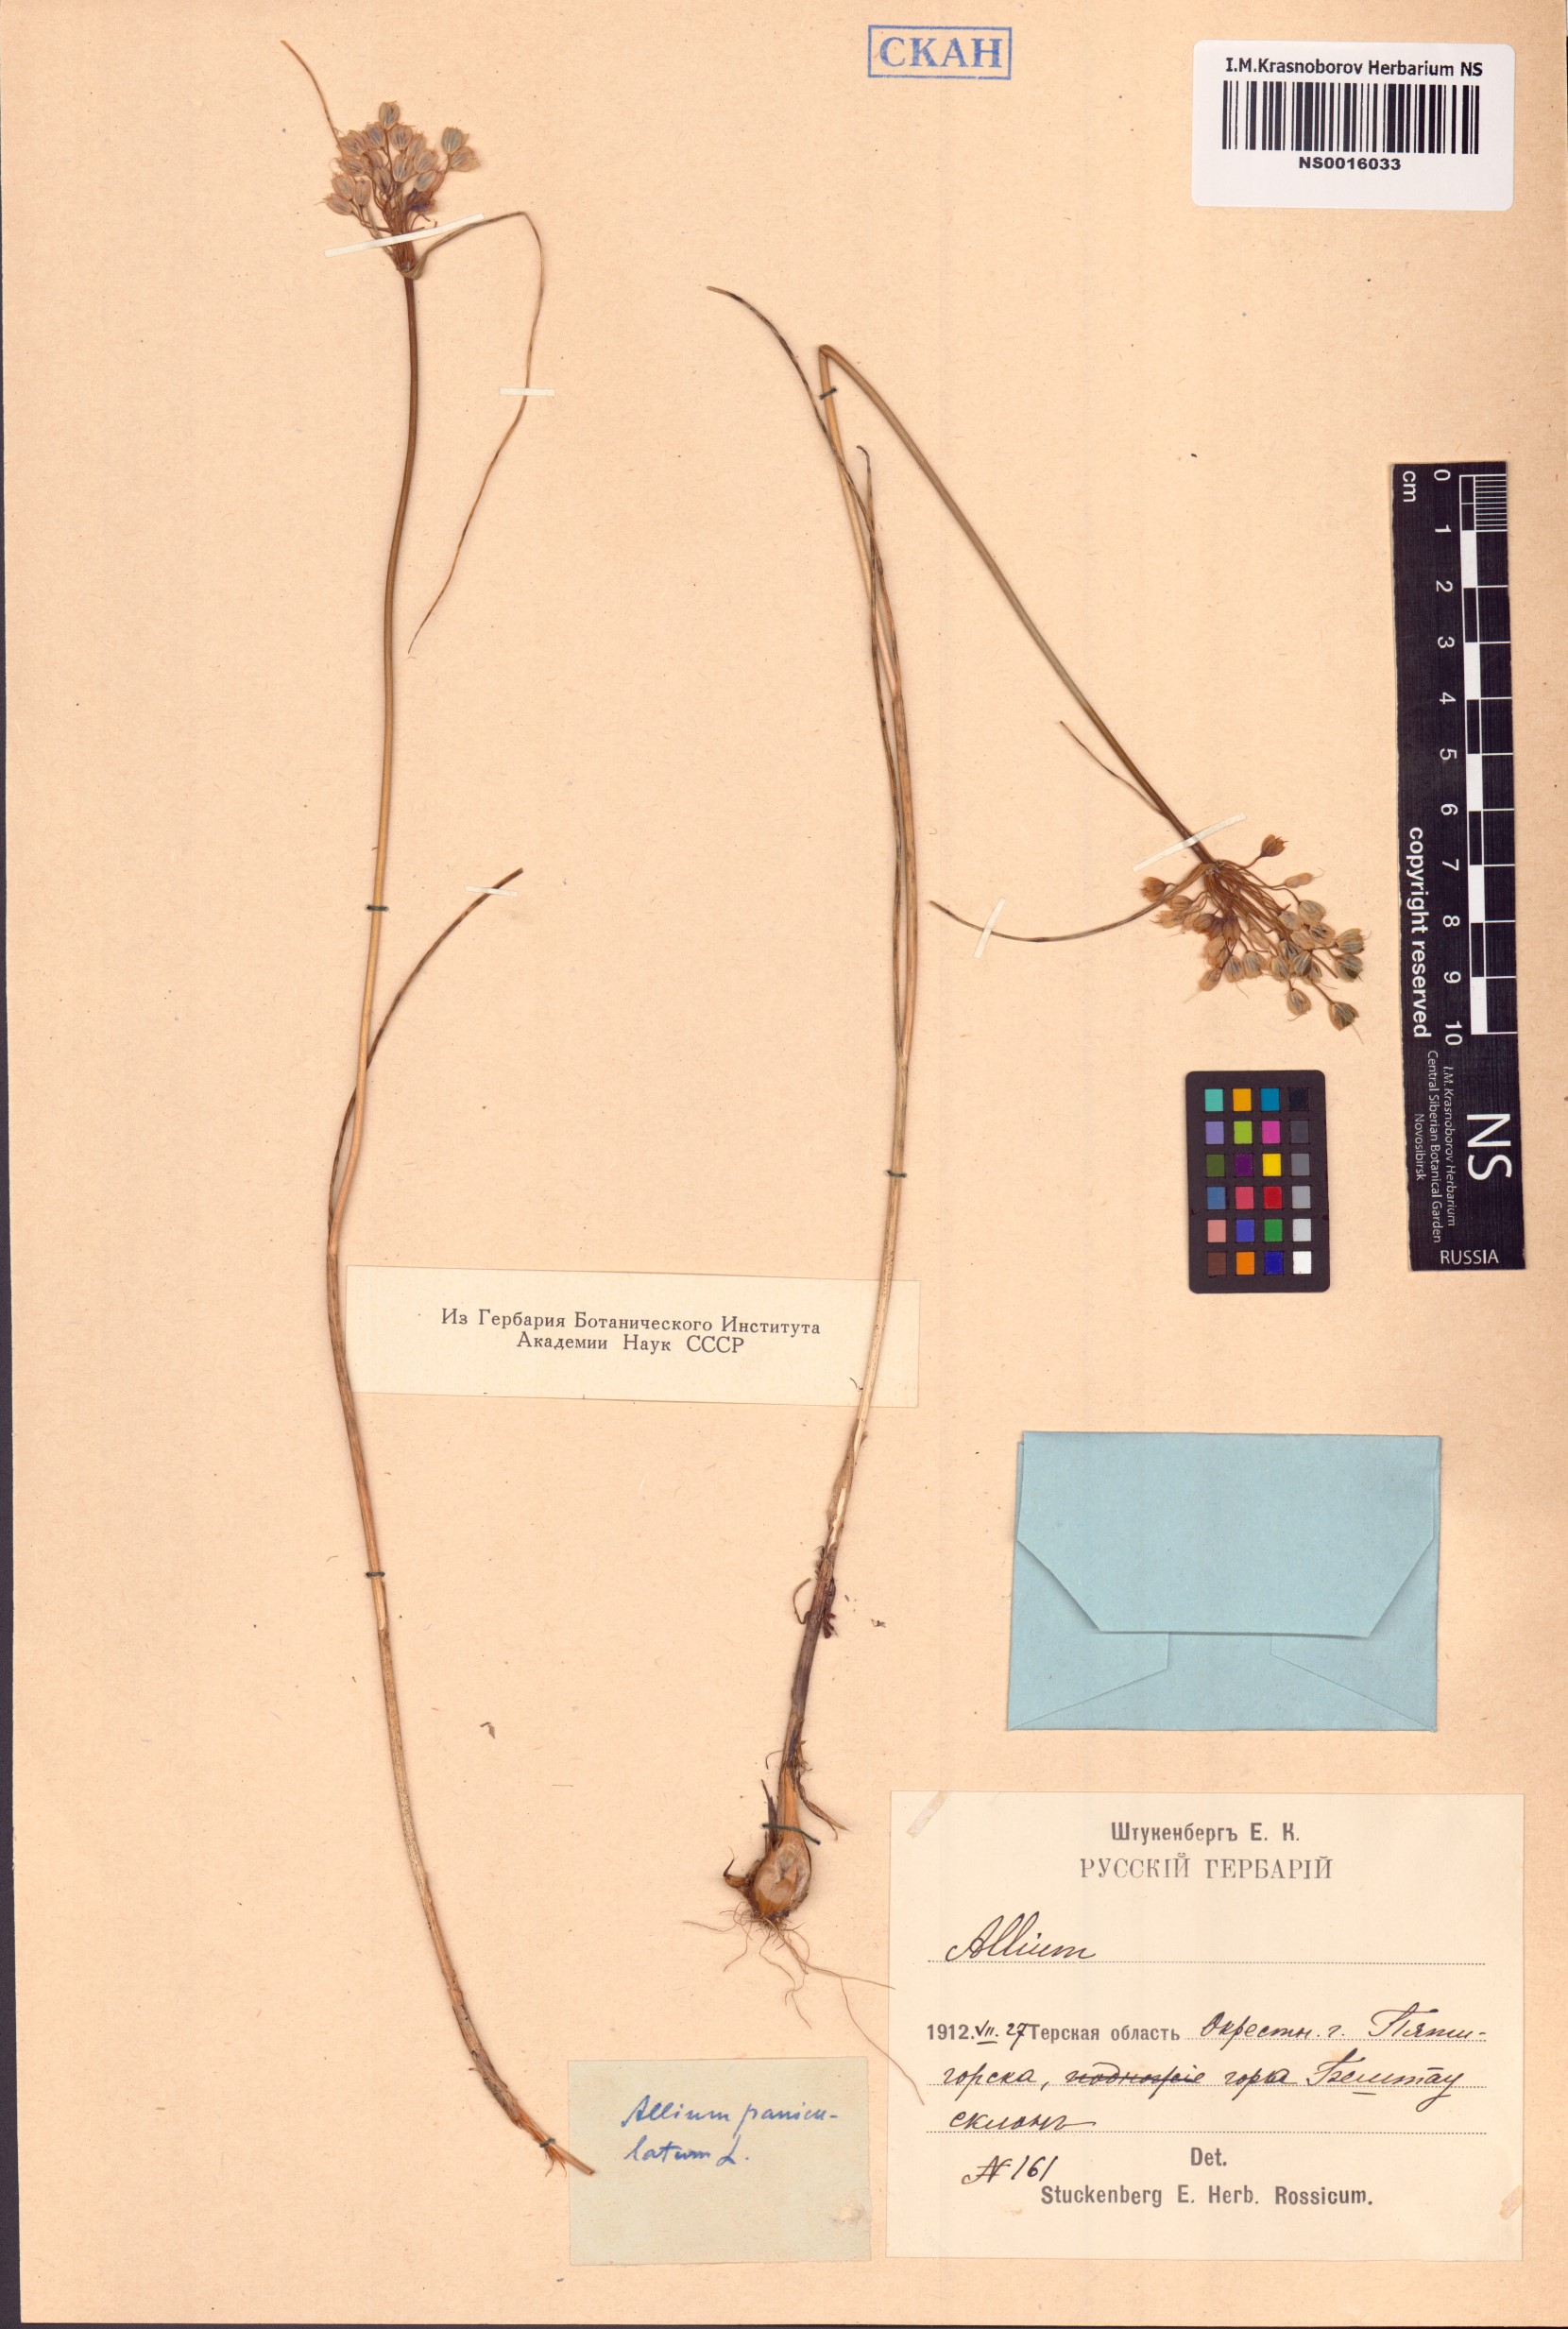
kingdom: Plantae
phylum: Tracheophyta
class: Liliopsida
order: Asparagales
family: Amaryllidaceae
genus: Allium
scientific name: Allium paniculatum
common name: Pale garlic
